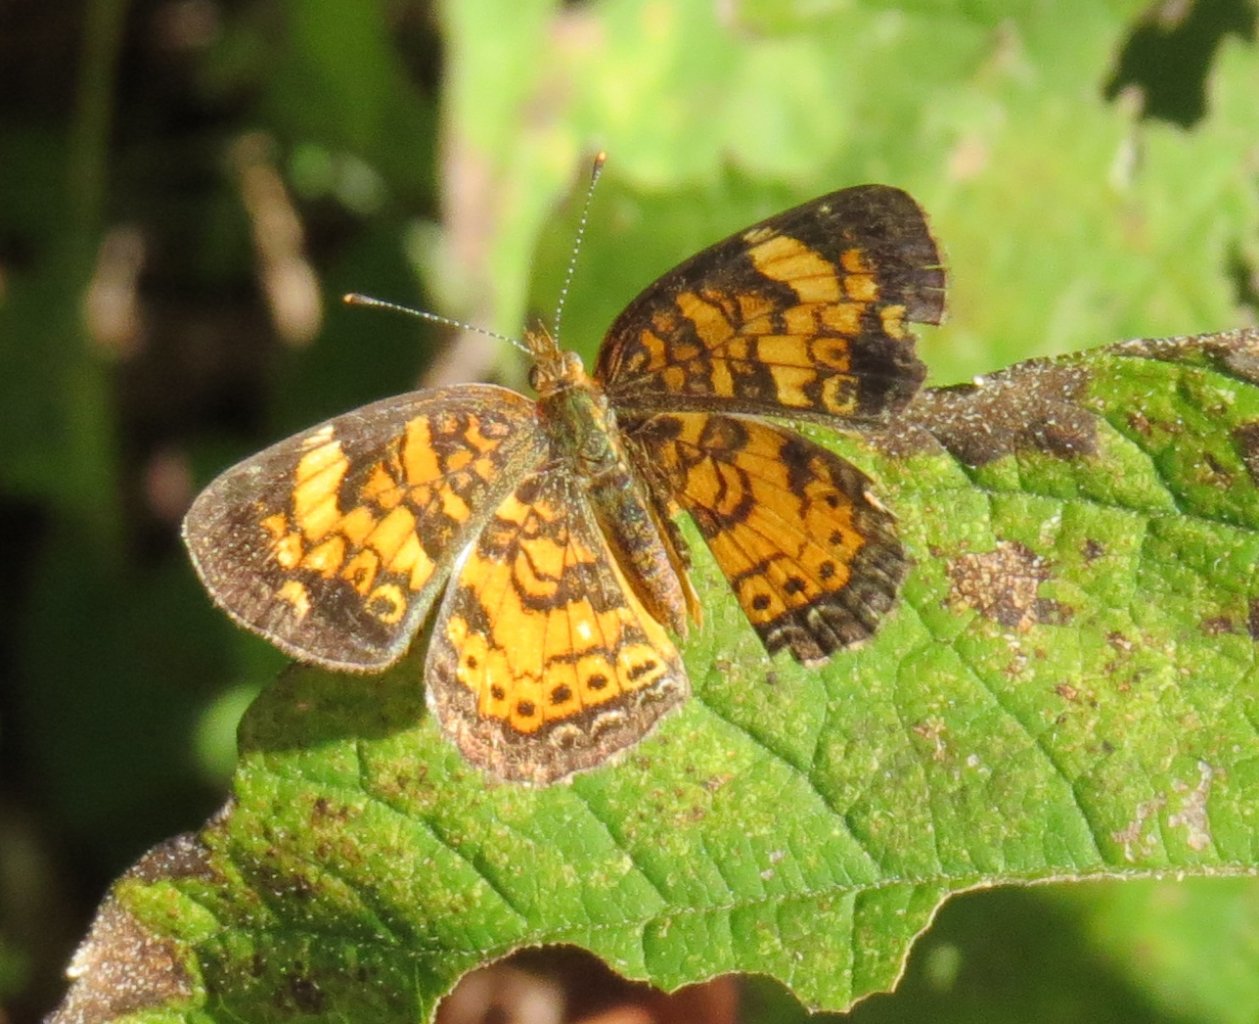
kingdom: Animalia
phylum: Arthropoda
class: Insecta
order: Lepidoptera
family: Nymphalidae
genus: Phyciodes
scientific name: Phyciodes tharos
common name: Pearl Crescent
